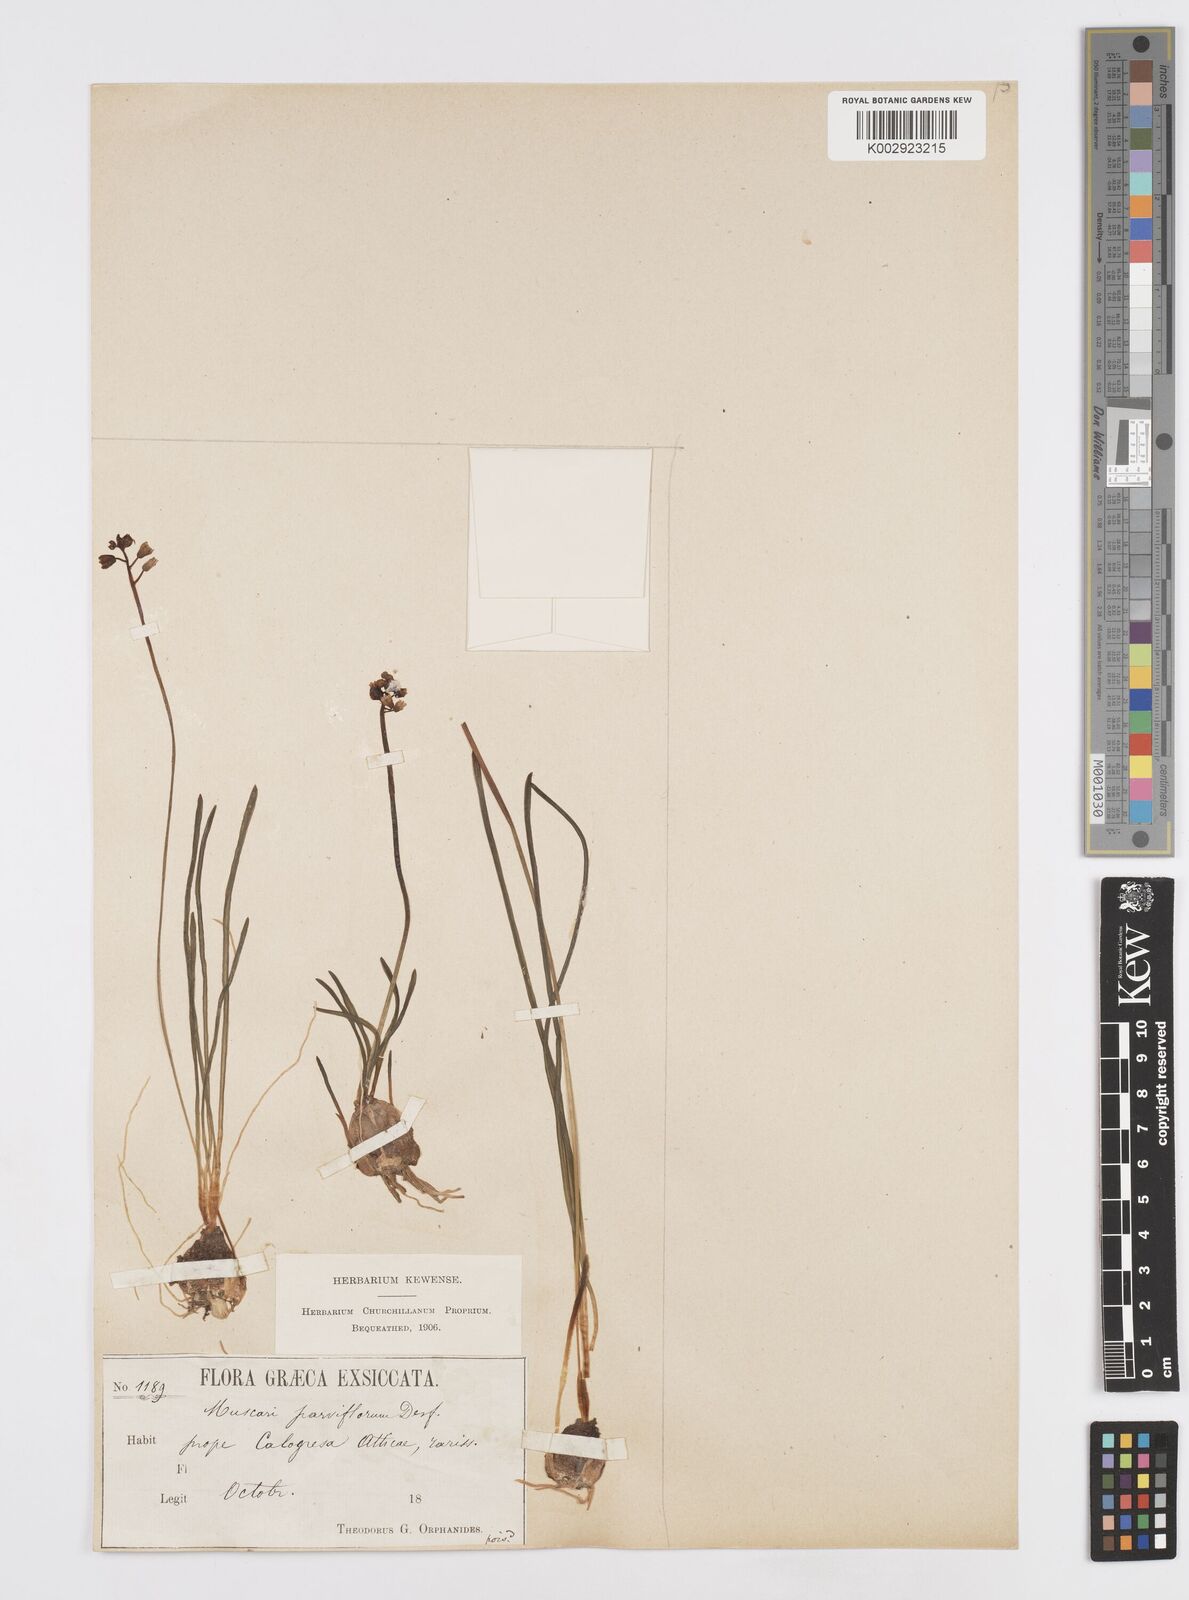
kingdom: Plantae
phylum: Tracheophyta
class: Liliopsida
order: Asparagales
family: Asparagaceae
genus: Muscari
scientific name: Muscari parviflorum
